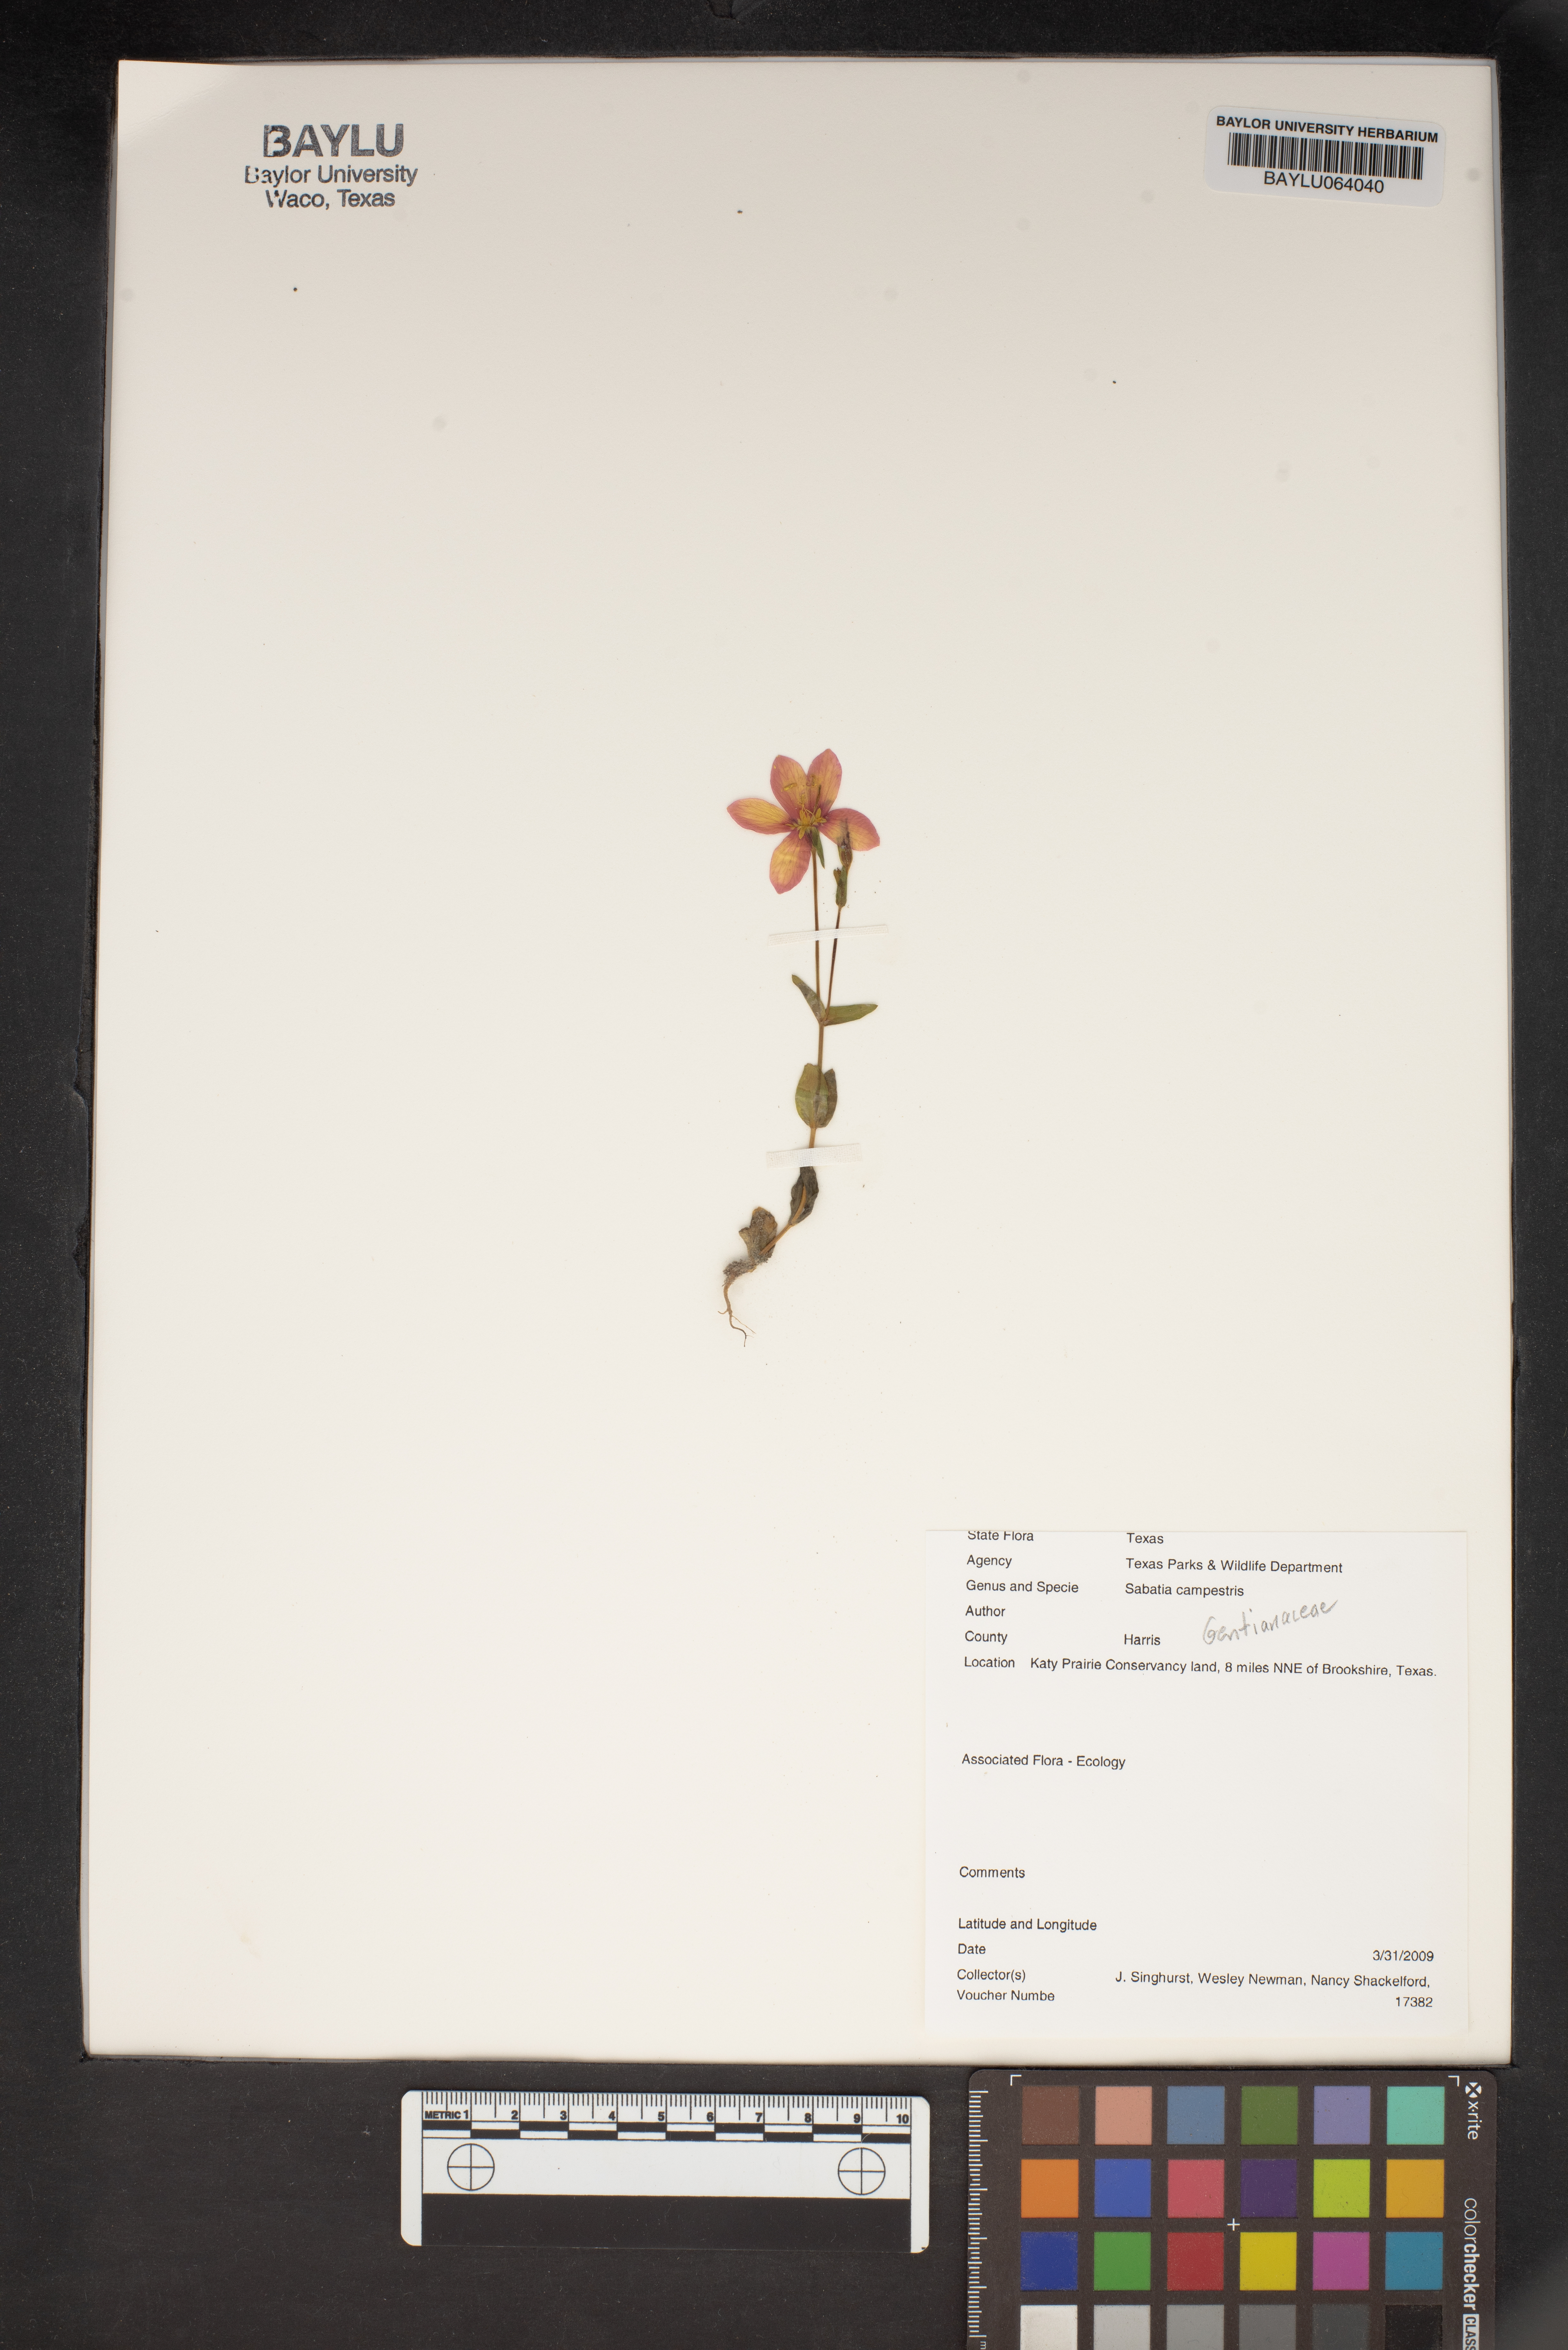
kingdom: Plantae
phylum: Tracheophyta
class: Magnoliopsida
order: Gentianales
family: Gentianaceae
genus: Sabatia
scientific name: Sabatia campestris
